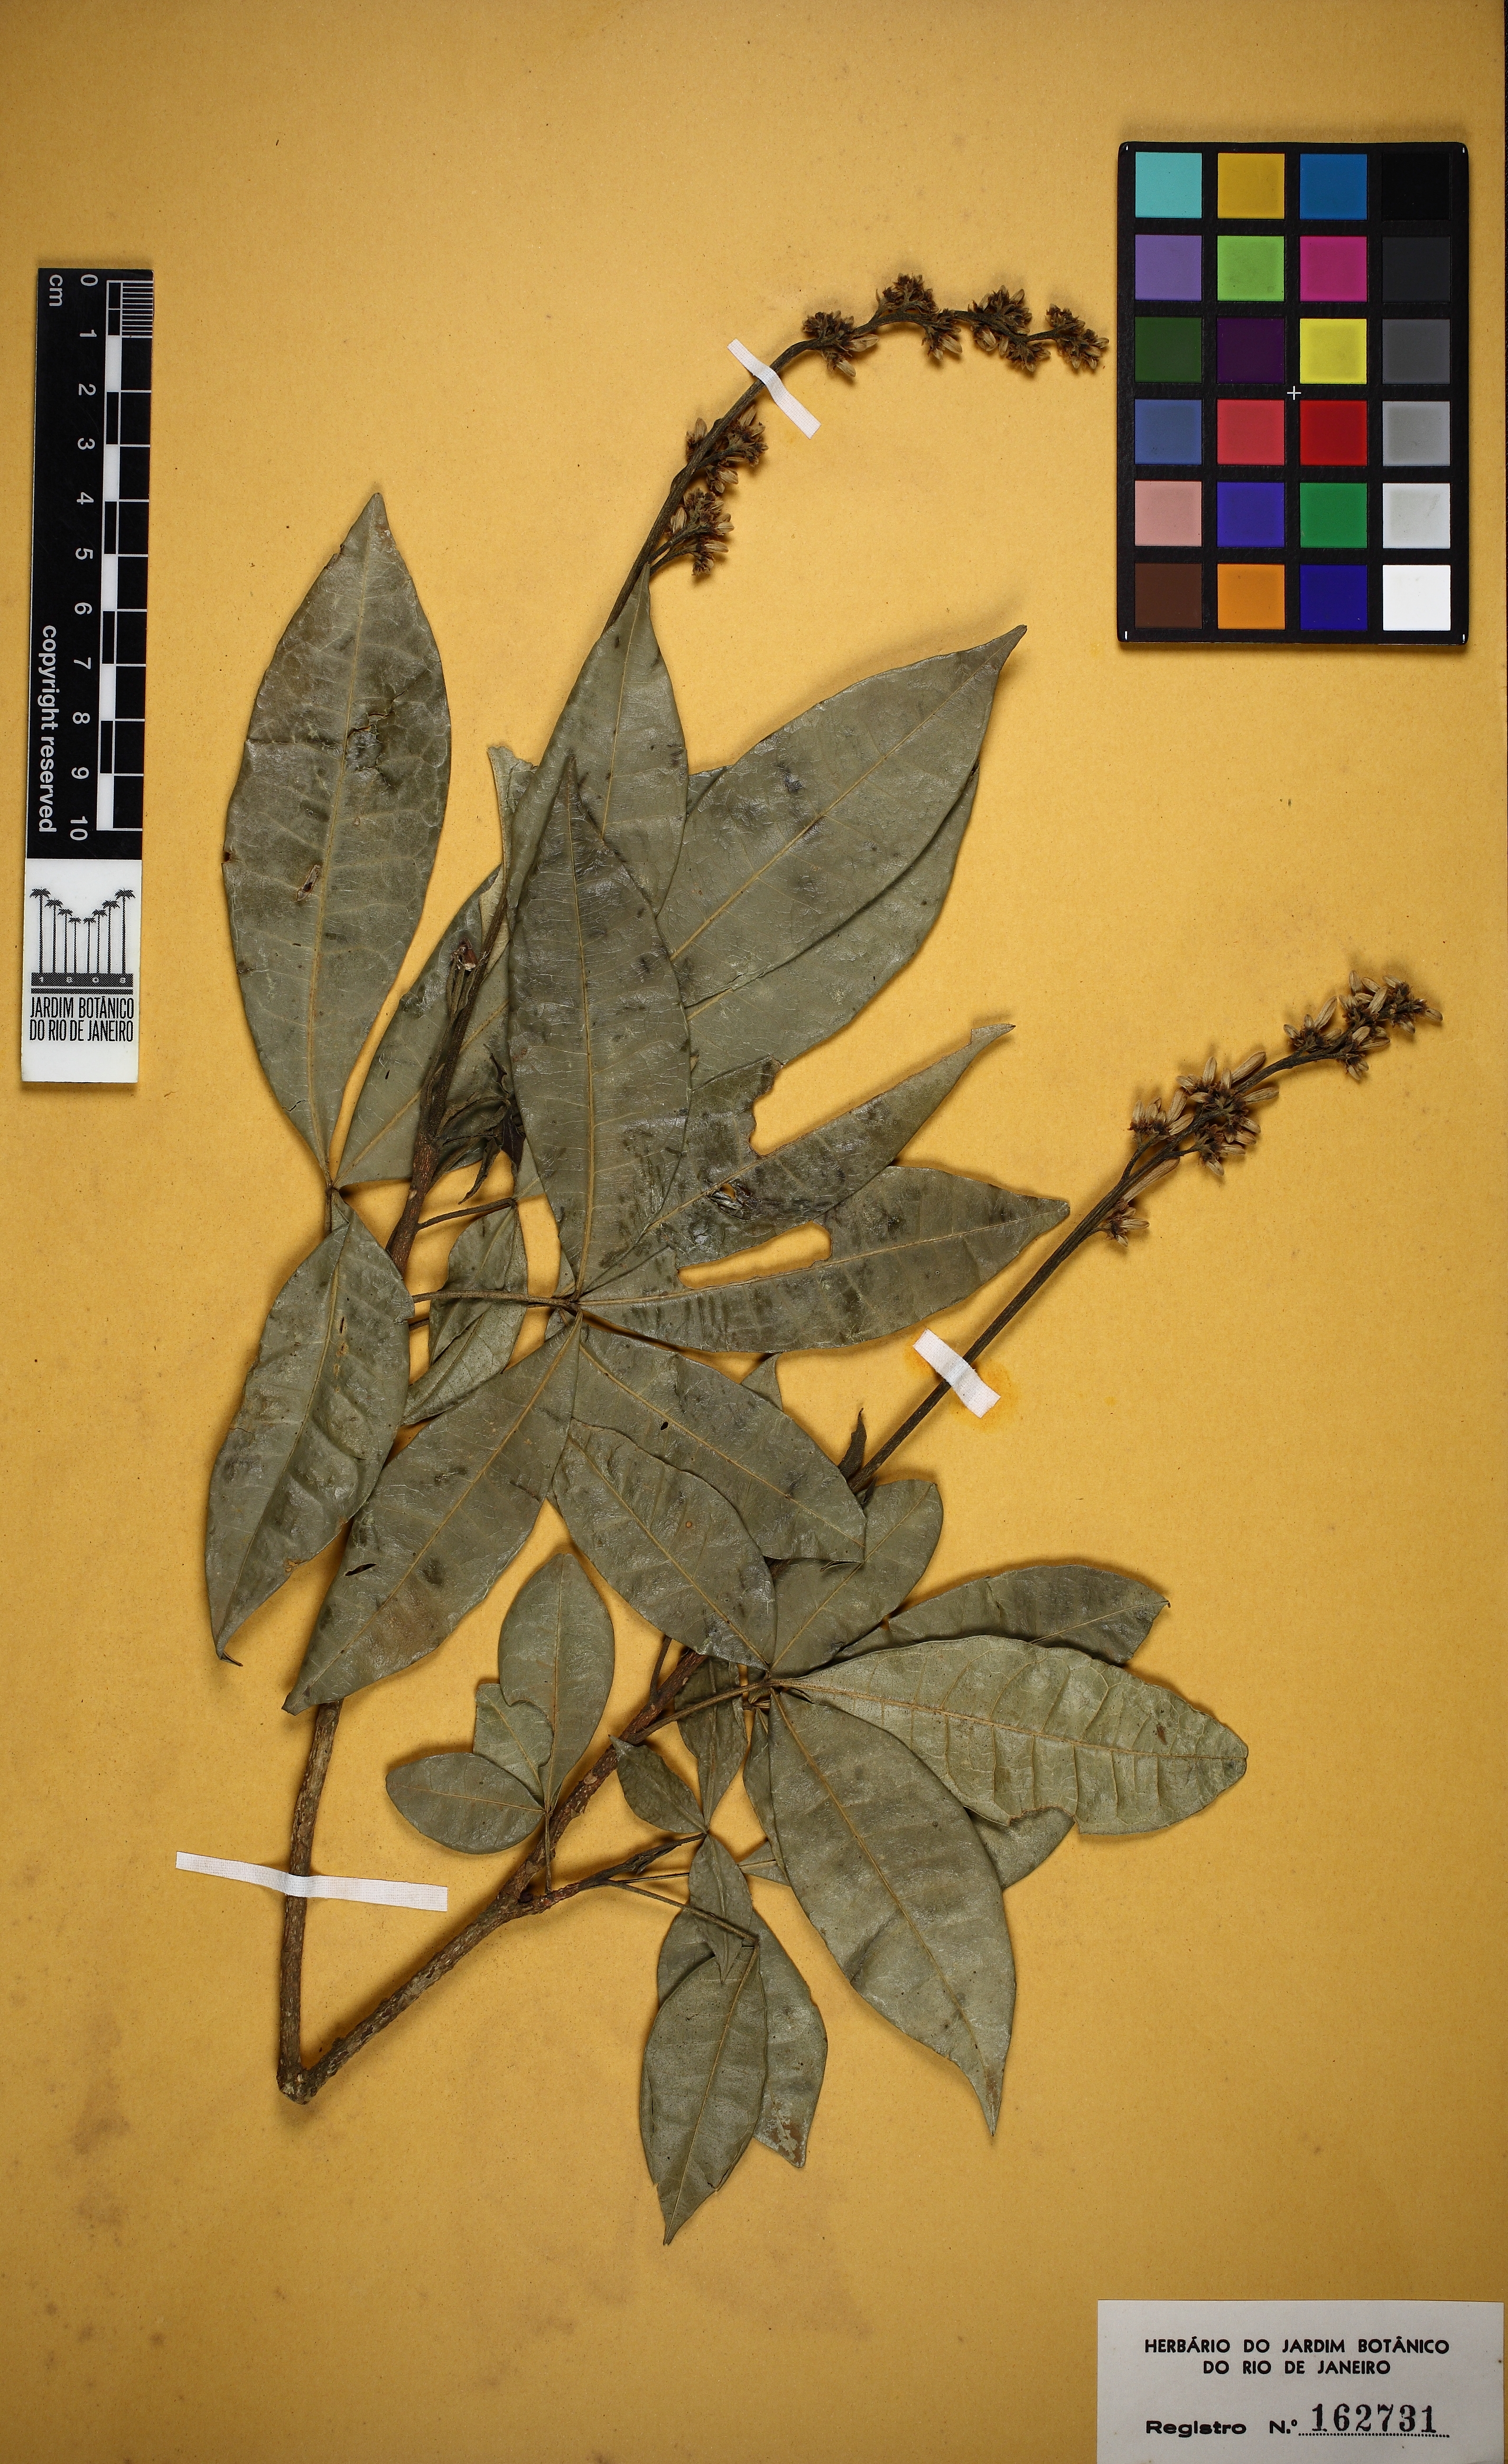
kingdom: Plantae
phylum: Tracheophyta
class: Magnoliopsida
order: Sapindales
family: Rutaceae
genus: Angostura
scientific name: Angostura bracteata
